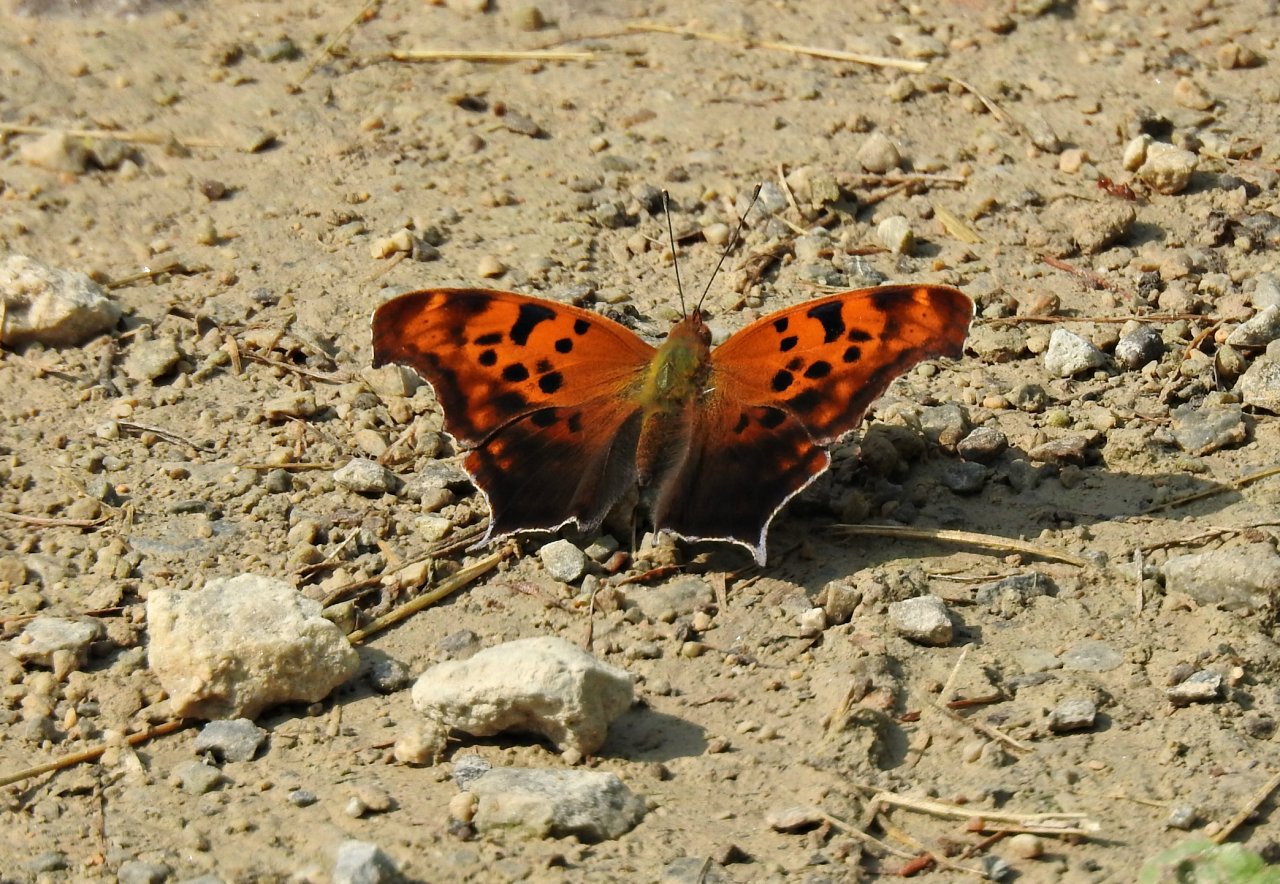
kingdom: Animalia
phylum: Arthropoda
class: Insecta
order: Lepidoptera
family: Nymphalidae
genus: Polygonia
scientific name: Polygonia interrogationis
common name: Question Mark
